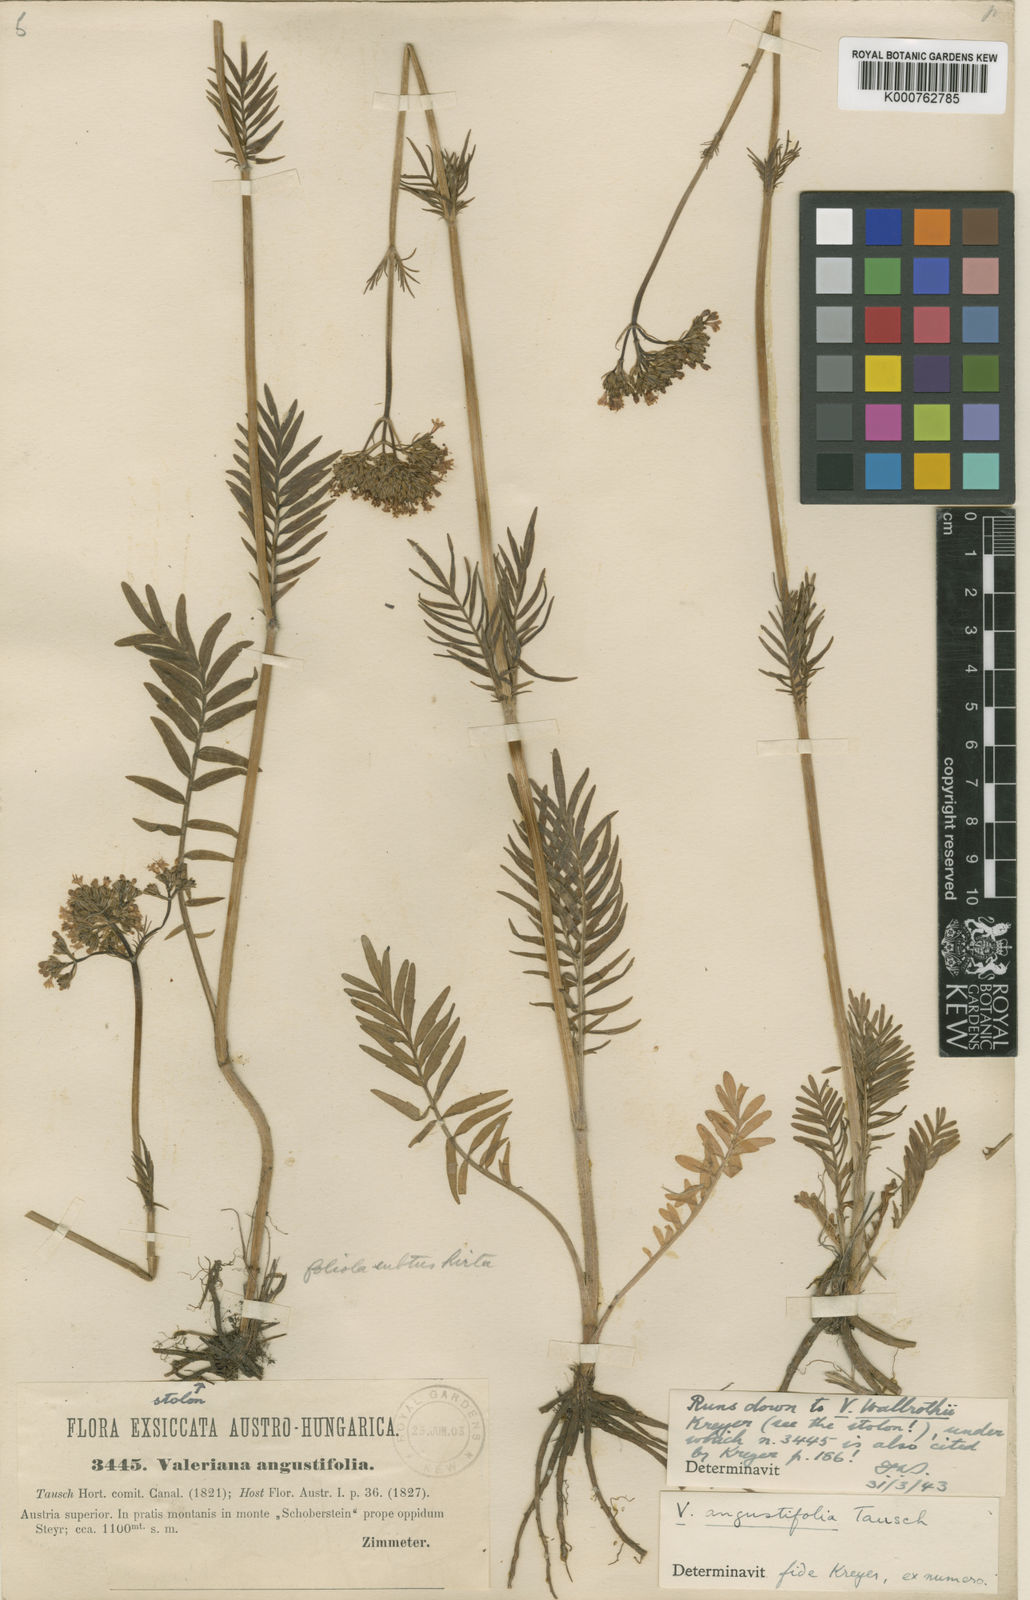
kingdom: Plantae
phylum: Tracheophyta
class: Magnoliopsida
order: Dipsacales
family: Caprifoliaceae
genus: Valeriana
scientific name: Valeriana officinalis
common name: Common valerian
